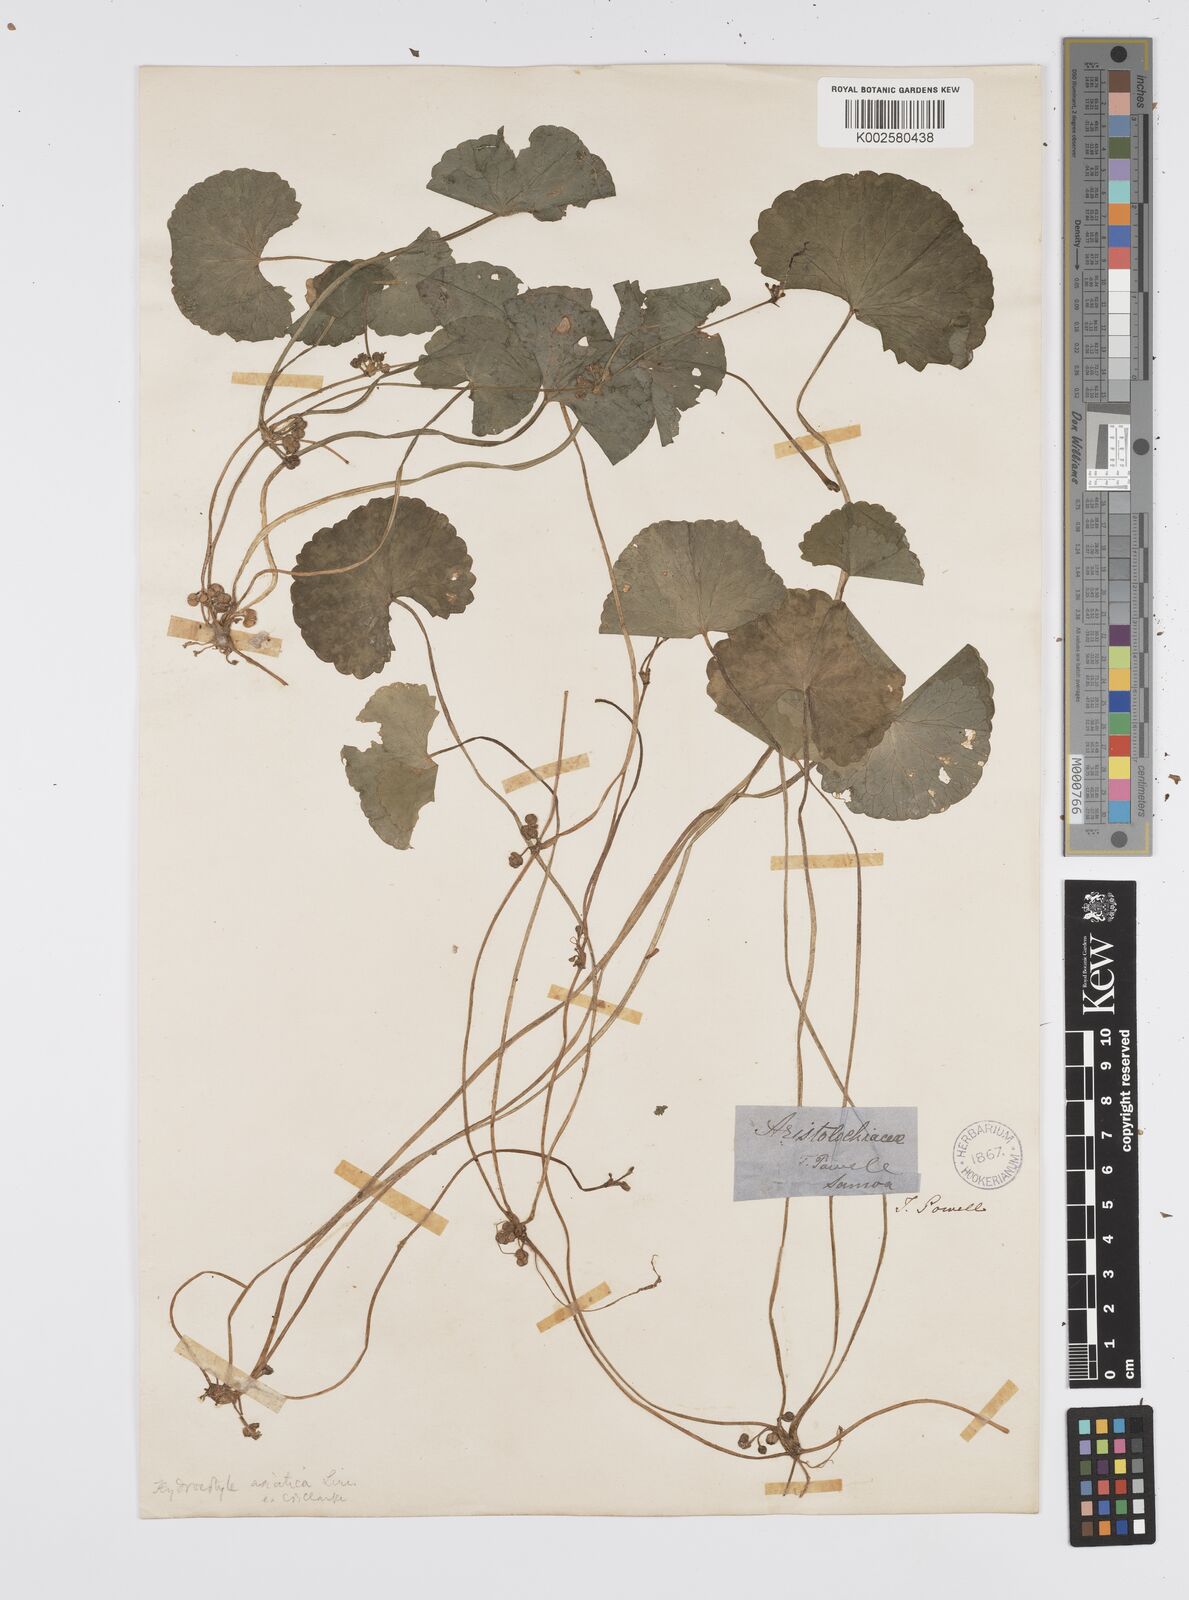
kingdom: Plantae
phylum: Tracheophyta
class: Magnoliopsida
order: Apiales
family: Apiaceae
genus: Centella
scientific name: Centella asiatica
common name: Spadeleaf
